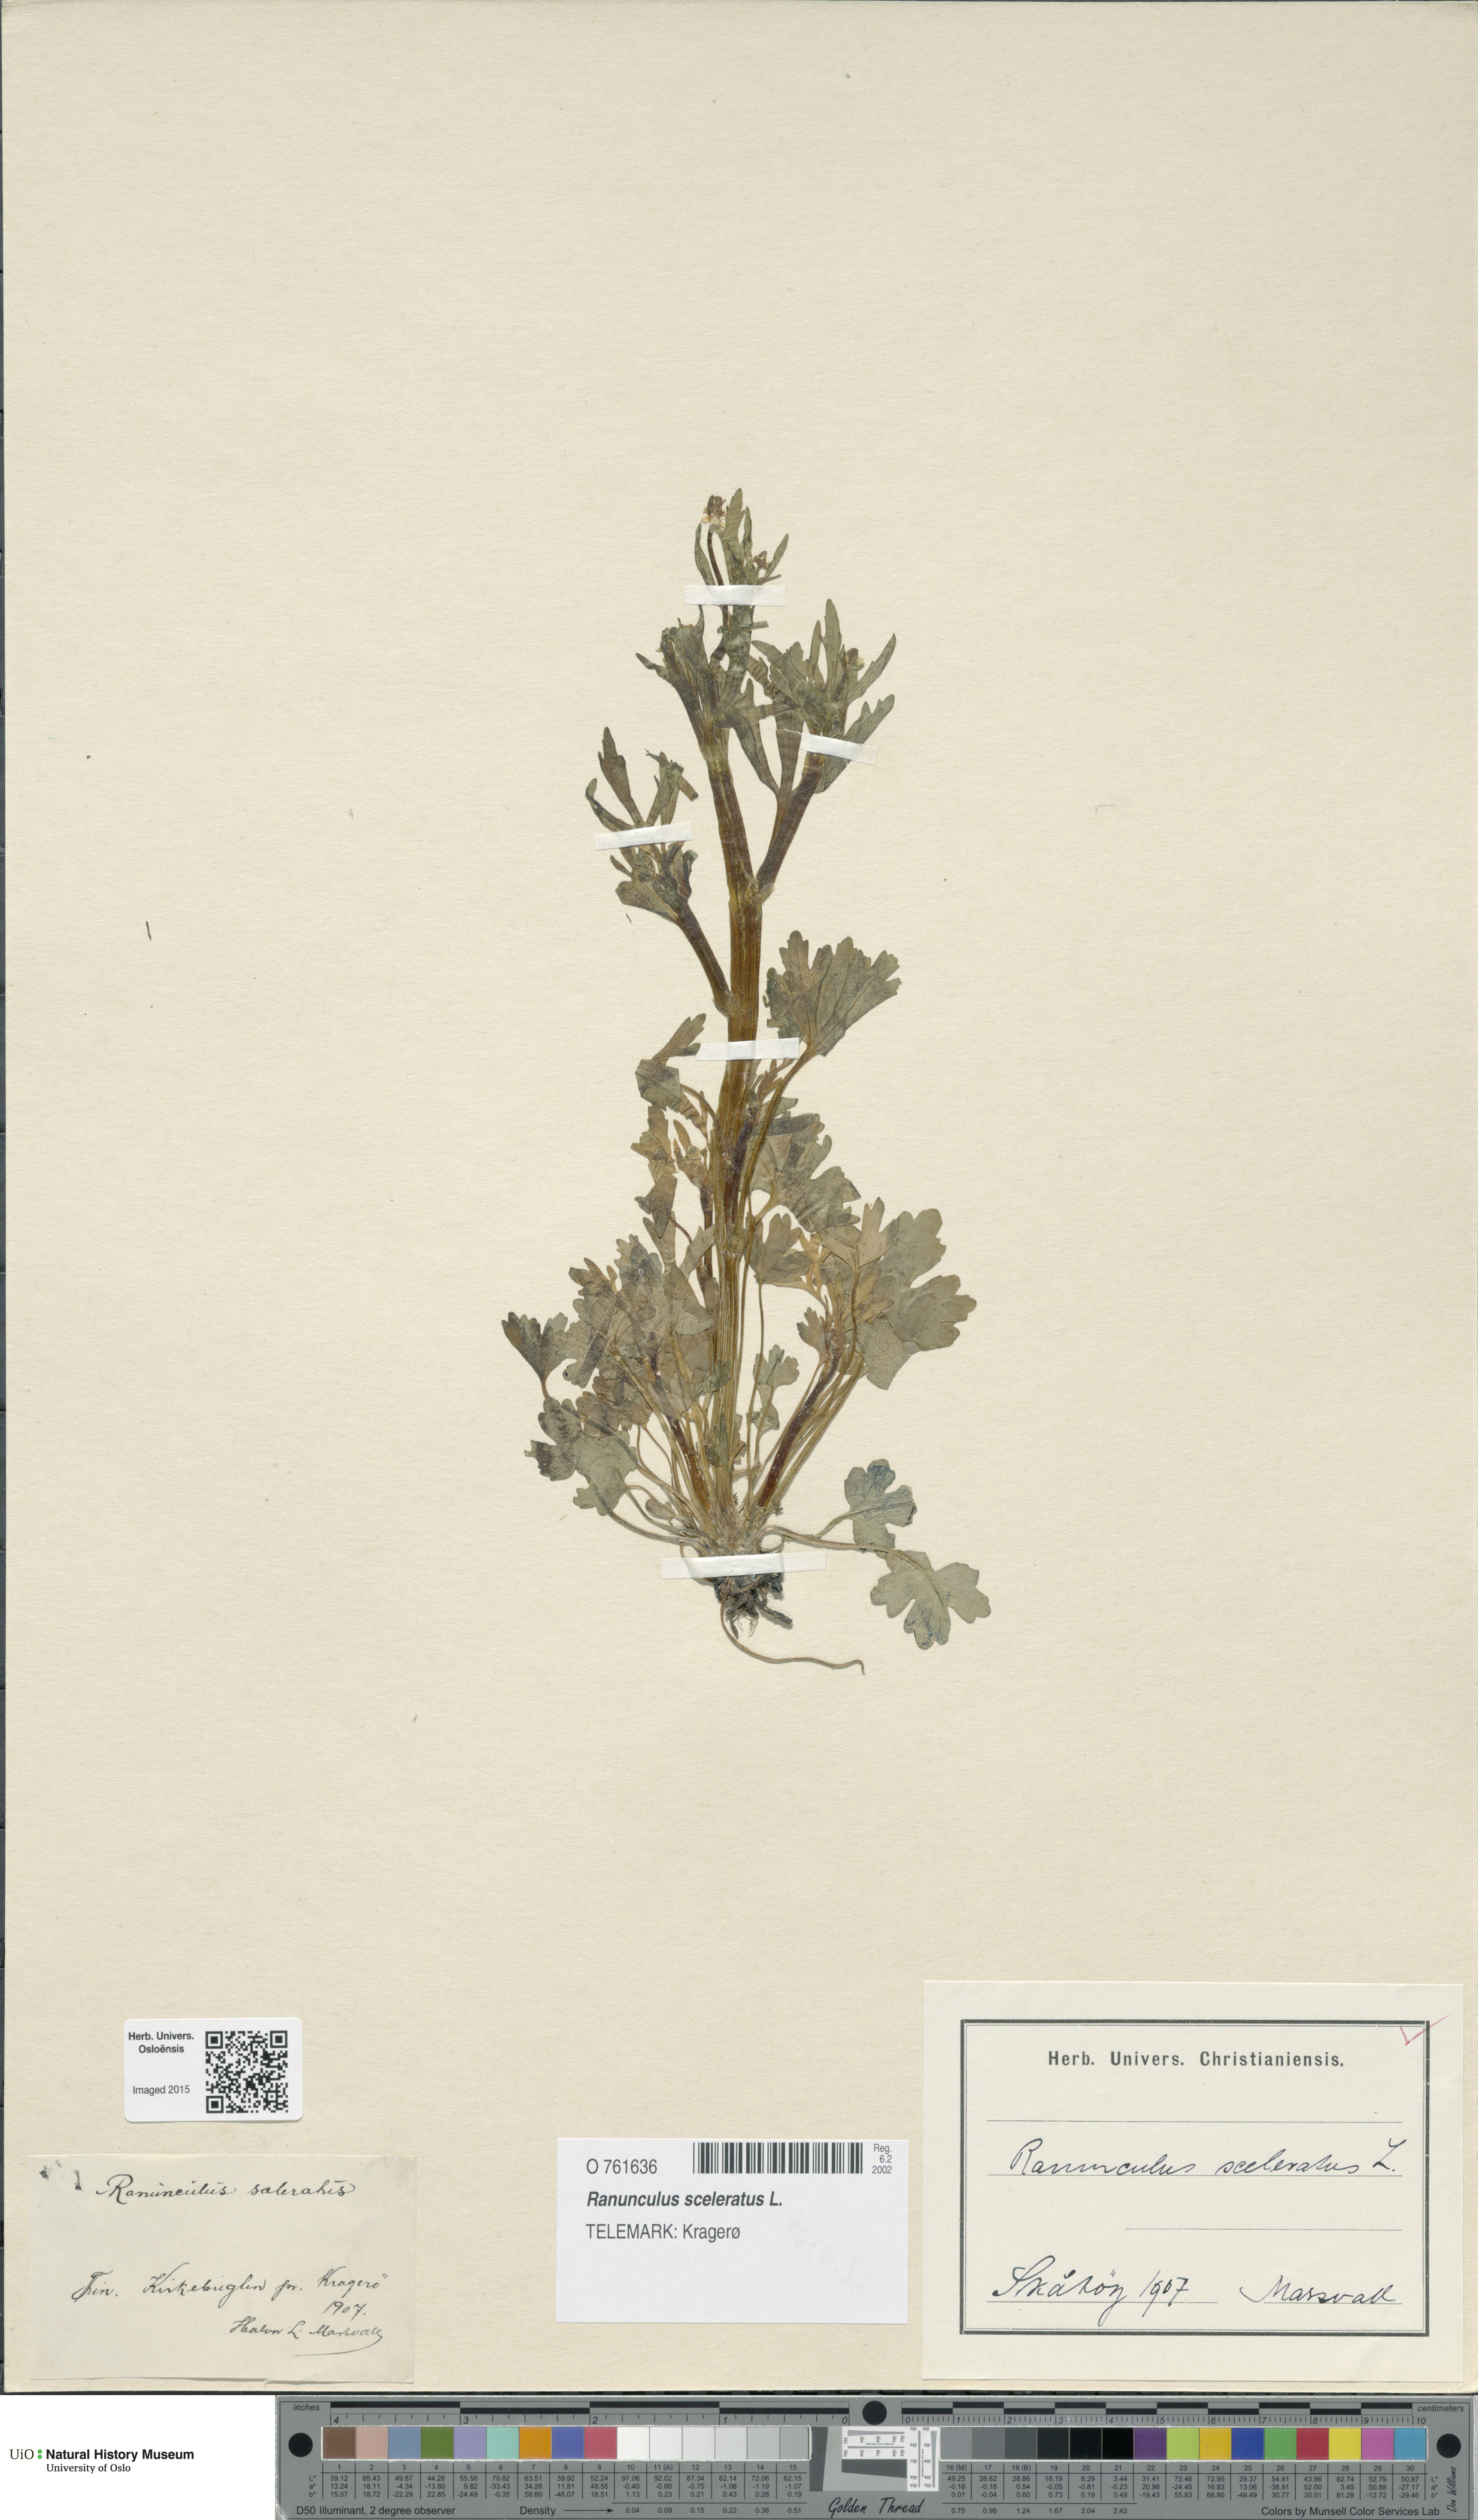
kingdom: Plantae
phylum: Tracheophyta
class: Magnoliopsida
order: Ranunculales
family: Ranunculaceae
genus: Ranunculus
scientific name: Ranunculus sceleratus
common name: Celery-leaved buttercup
